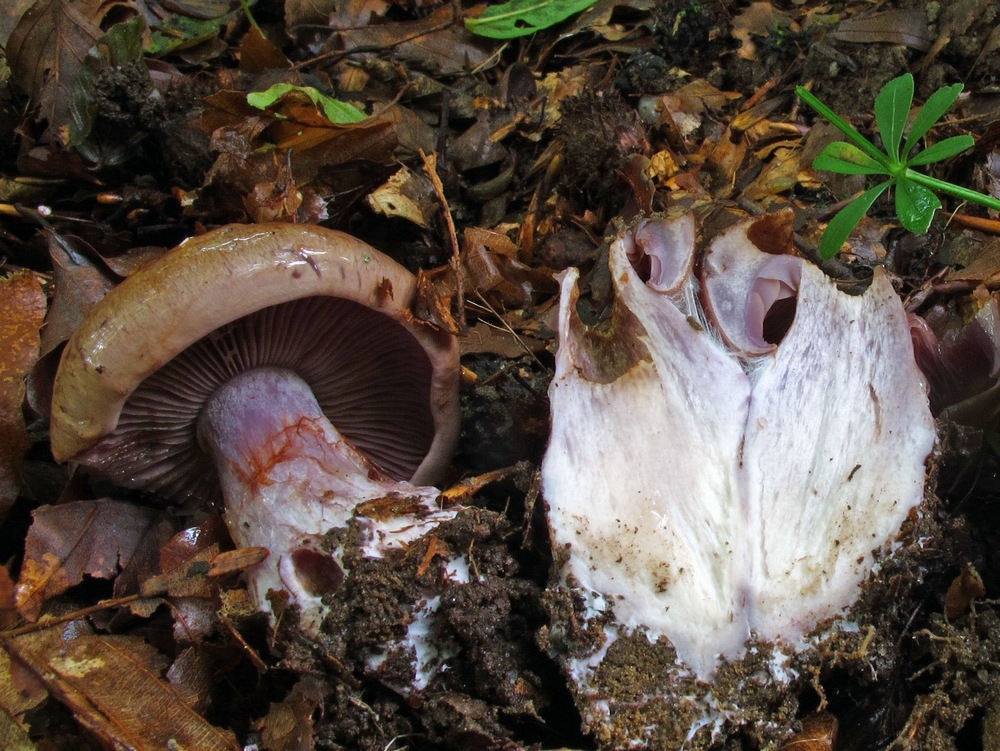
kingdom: Fungi
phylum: Basidiomycota
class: Agaricomycetes
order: Agaricales
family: Cortinariaceae
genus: Thaxterogaster
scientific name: Thaxterogaster purpurascens
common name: purpurbrun slørhat
